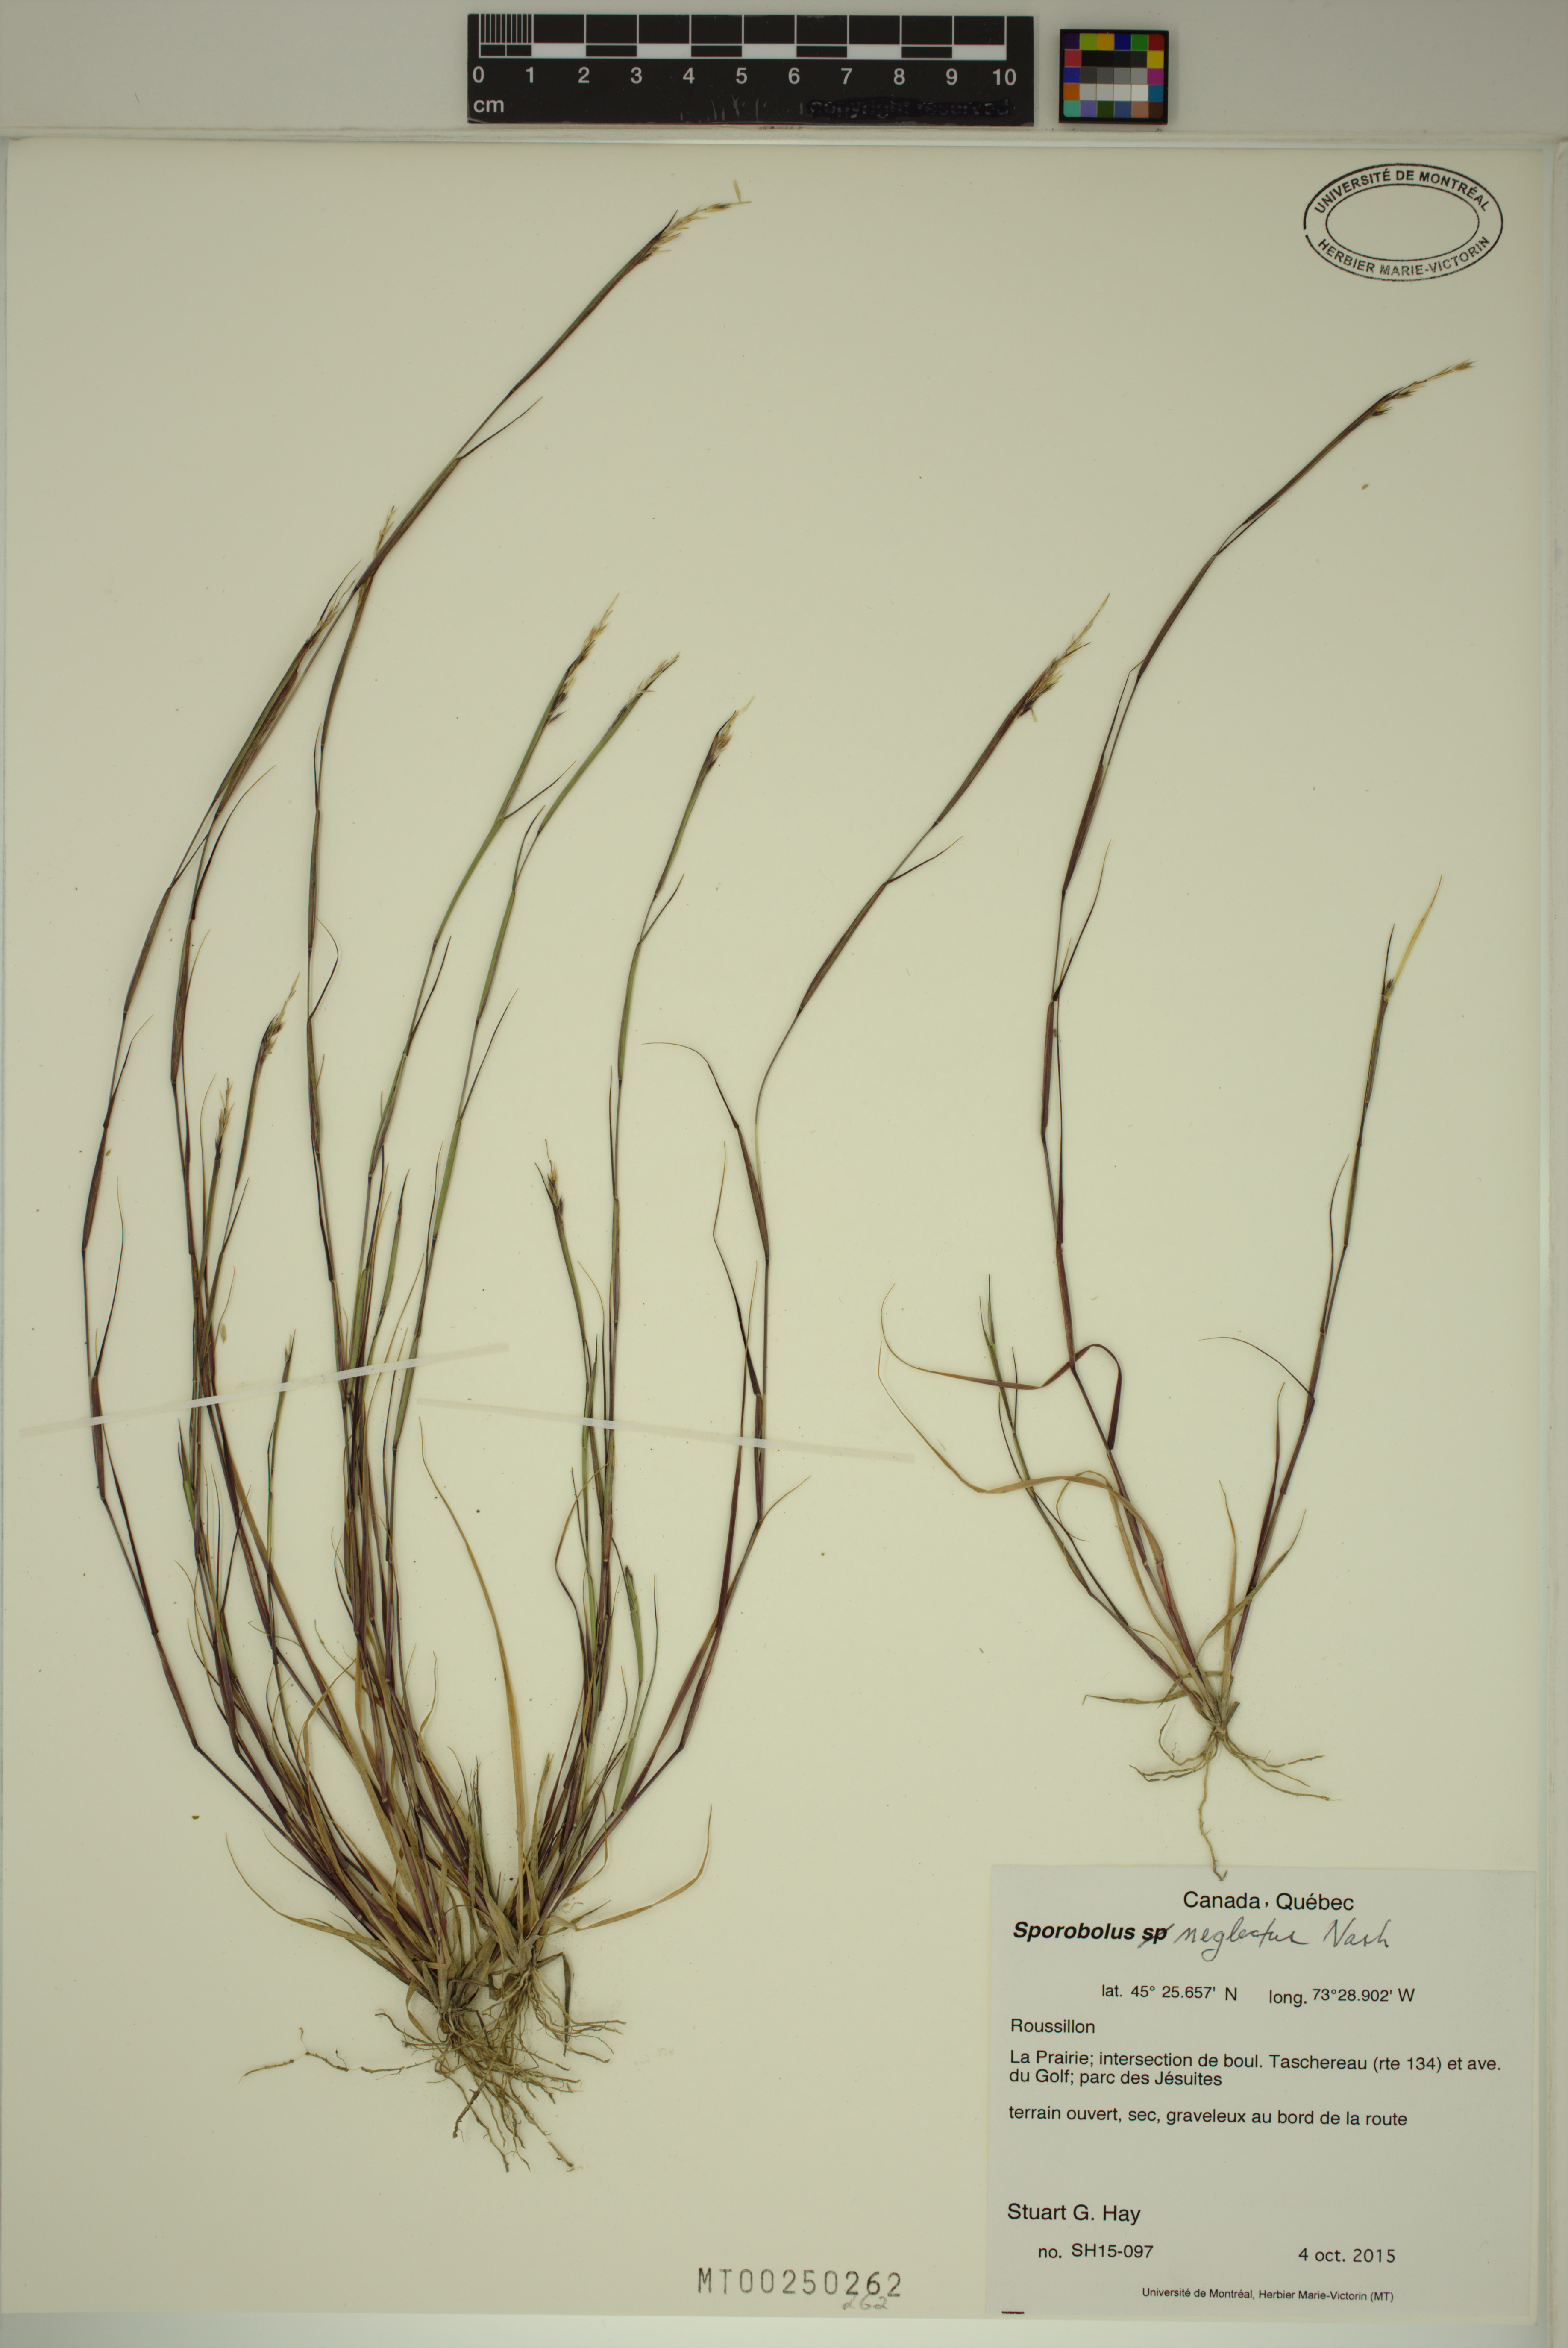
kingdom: Plantae
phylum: Tracheophyta
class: Liliopsida
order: Poales
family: Poaceae
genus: Sporobolus
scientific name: Sporobolus neglectus
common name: Annual dropseed
